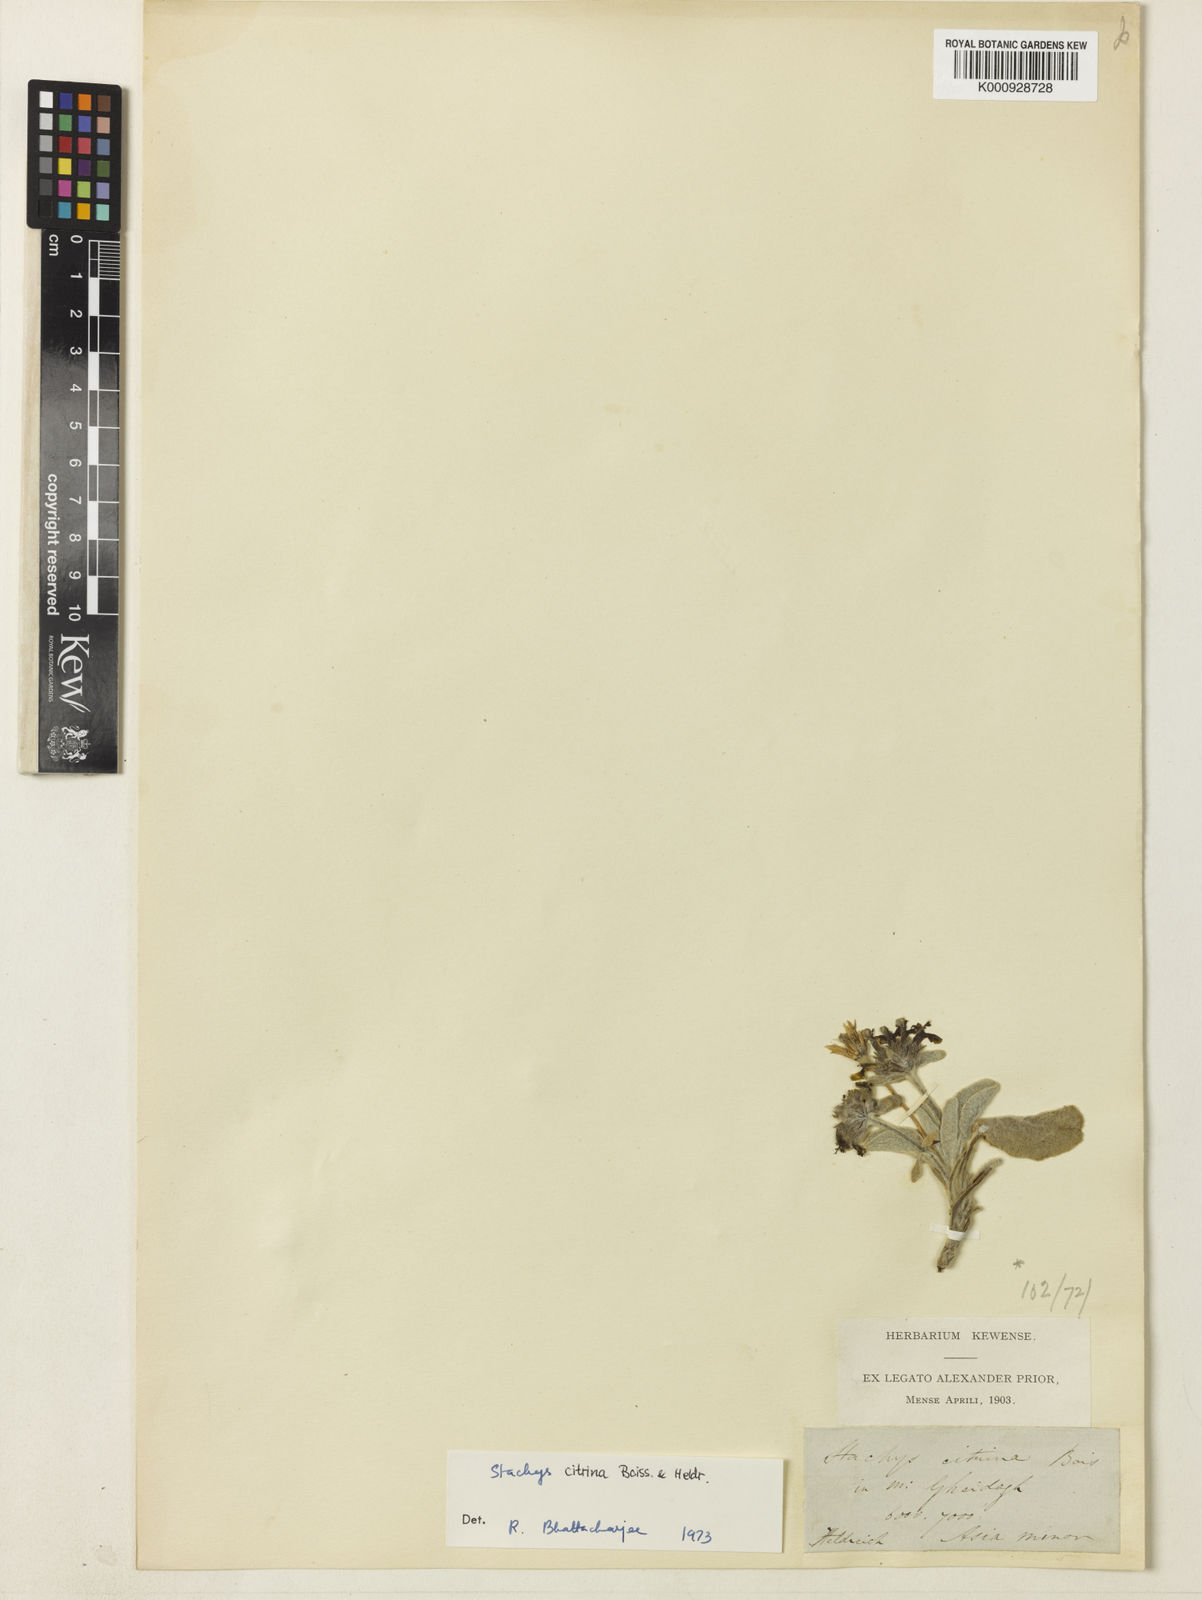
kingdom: Plantae
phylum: Tracheophyta
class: Magnoliopsida
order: Lamiales
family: Lamiaceae
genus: Stachys
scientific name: Stachys citrina
